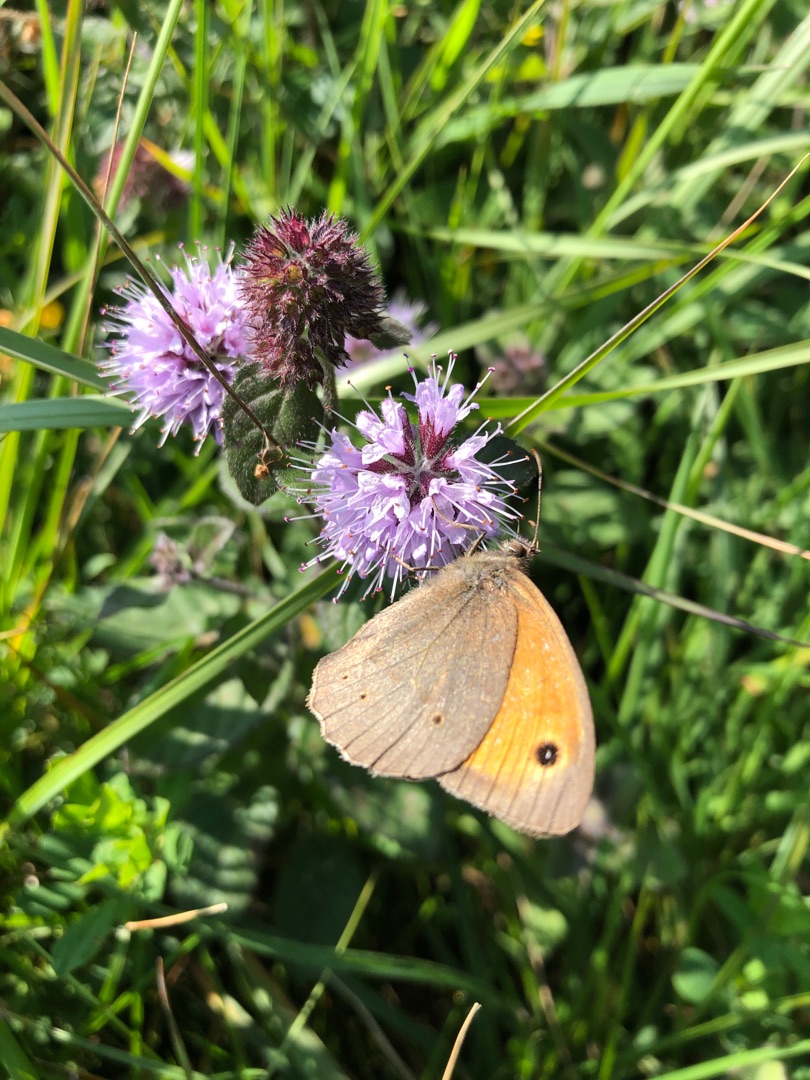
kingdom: Animalia
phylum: Arthropoda
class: Insecta
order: Lepidoptera
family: Nymphalidae
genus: Maniola
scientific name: Maniola jurtina
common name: Græsrandøje
